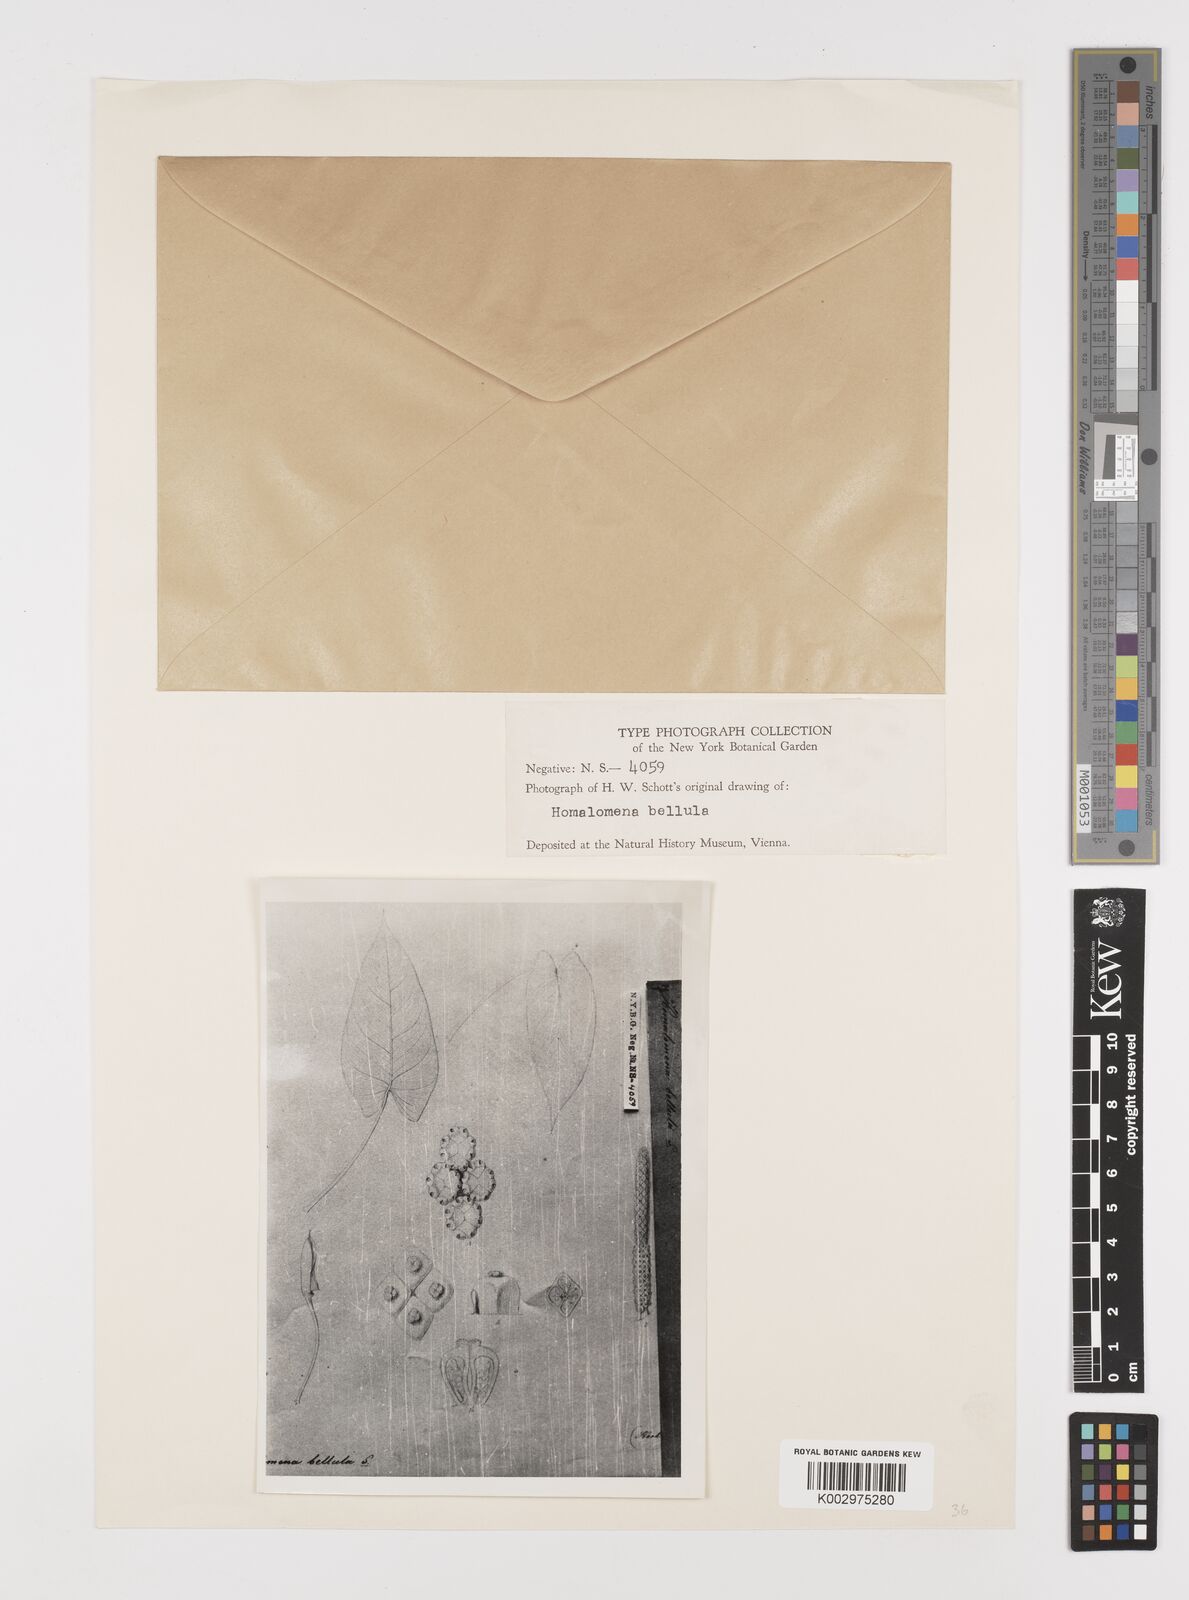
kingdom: Plantae
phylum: Tracheophyta
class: Liliopsida
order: Alismatales
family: Araceae
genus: Homalomena
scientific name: Homalomena bellula
